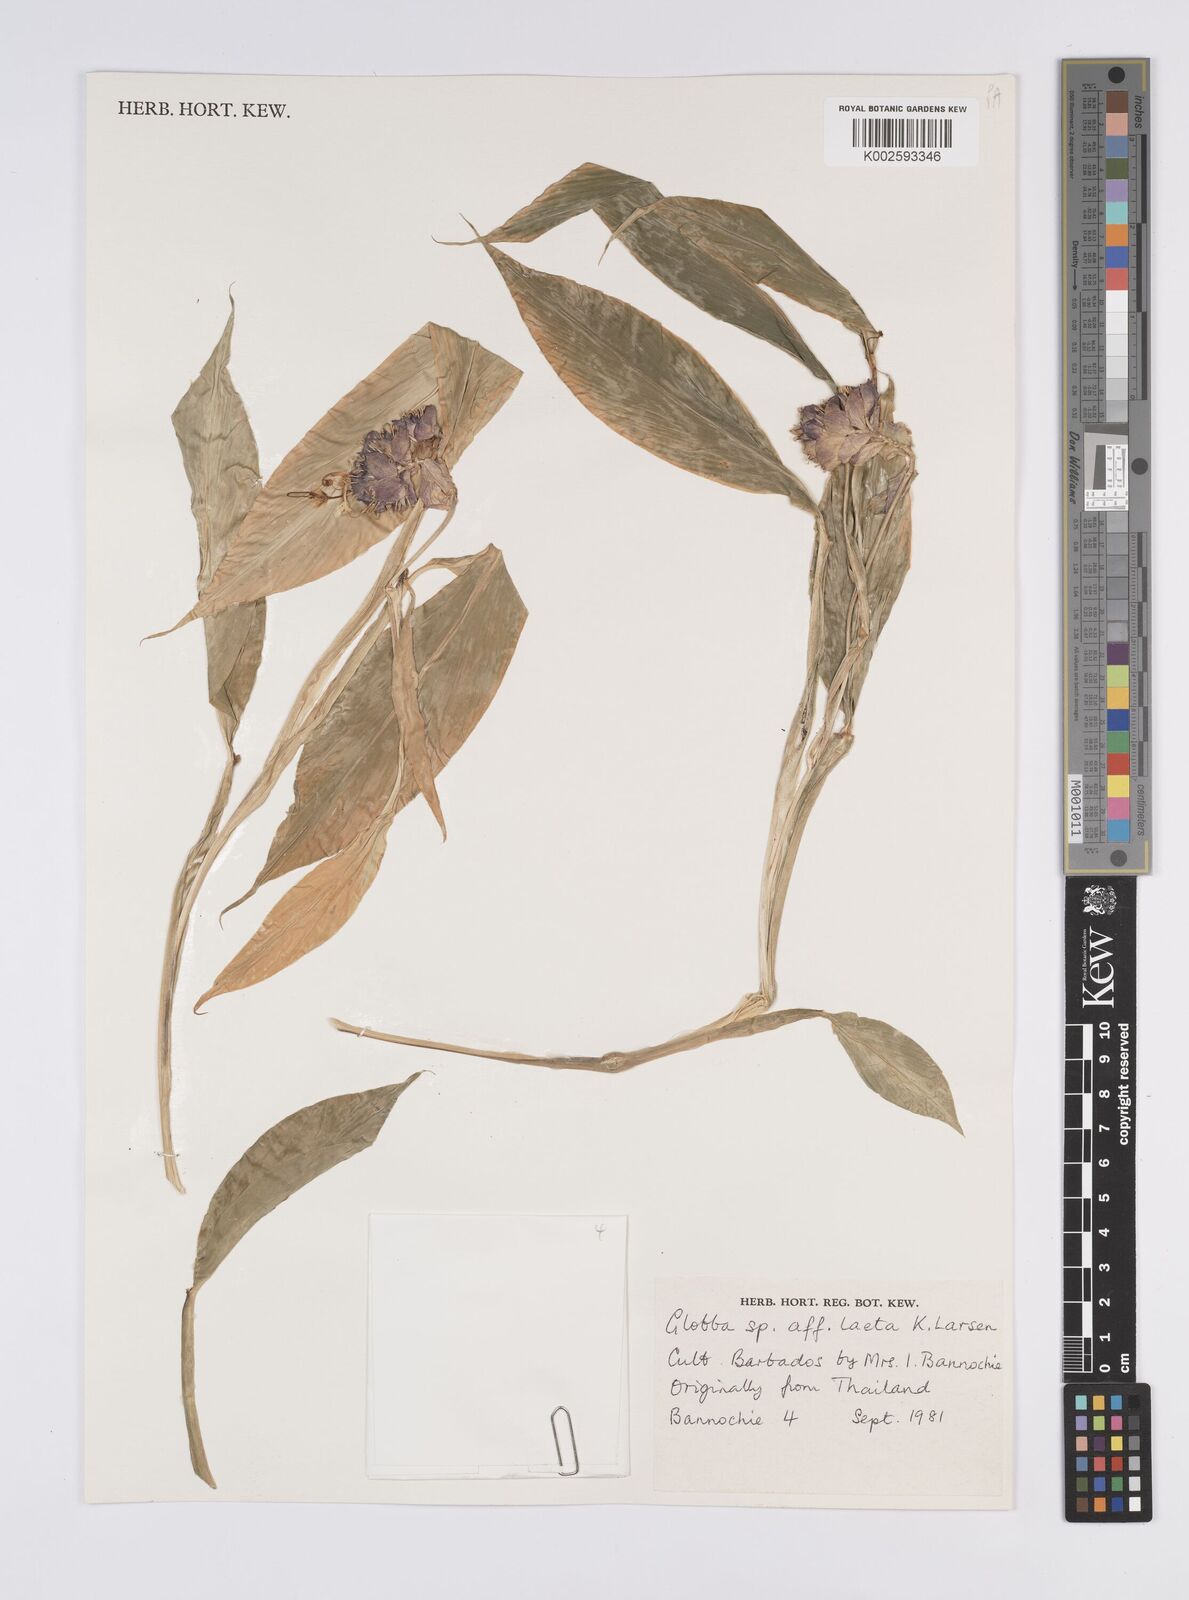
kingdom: Plantae
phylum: Tracheophyta
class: Liliopsida
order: Zingiberales
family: Zingiberaceae
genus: Globba
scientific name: Globba laeta
